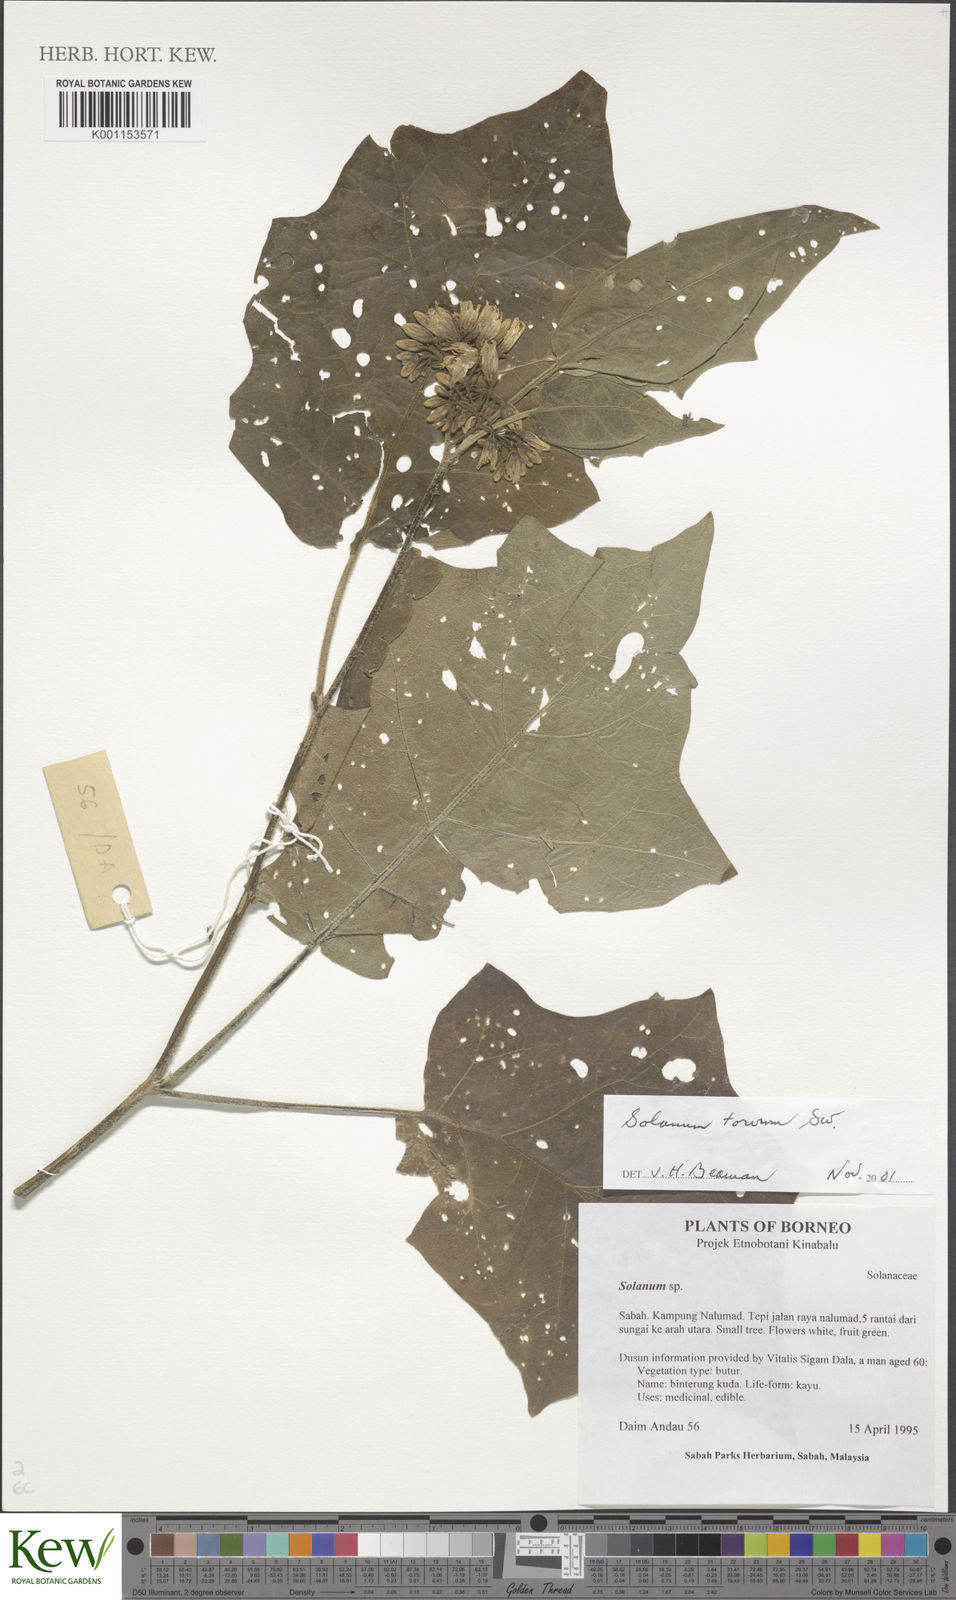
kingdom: Plantae
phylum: Tracheophyta
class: Magnoliopsida
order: Solanales
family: Solanaceae
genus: Solanum
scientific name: Solanum torvum
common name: Turkey berry
